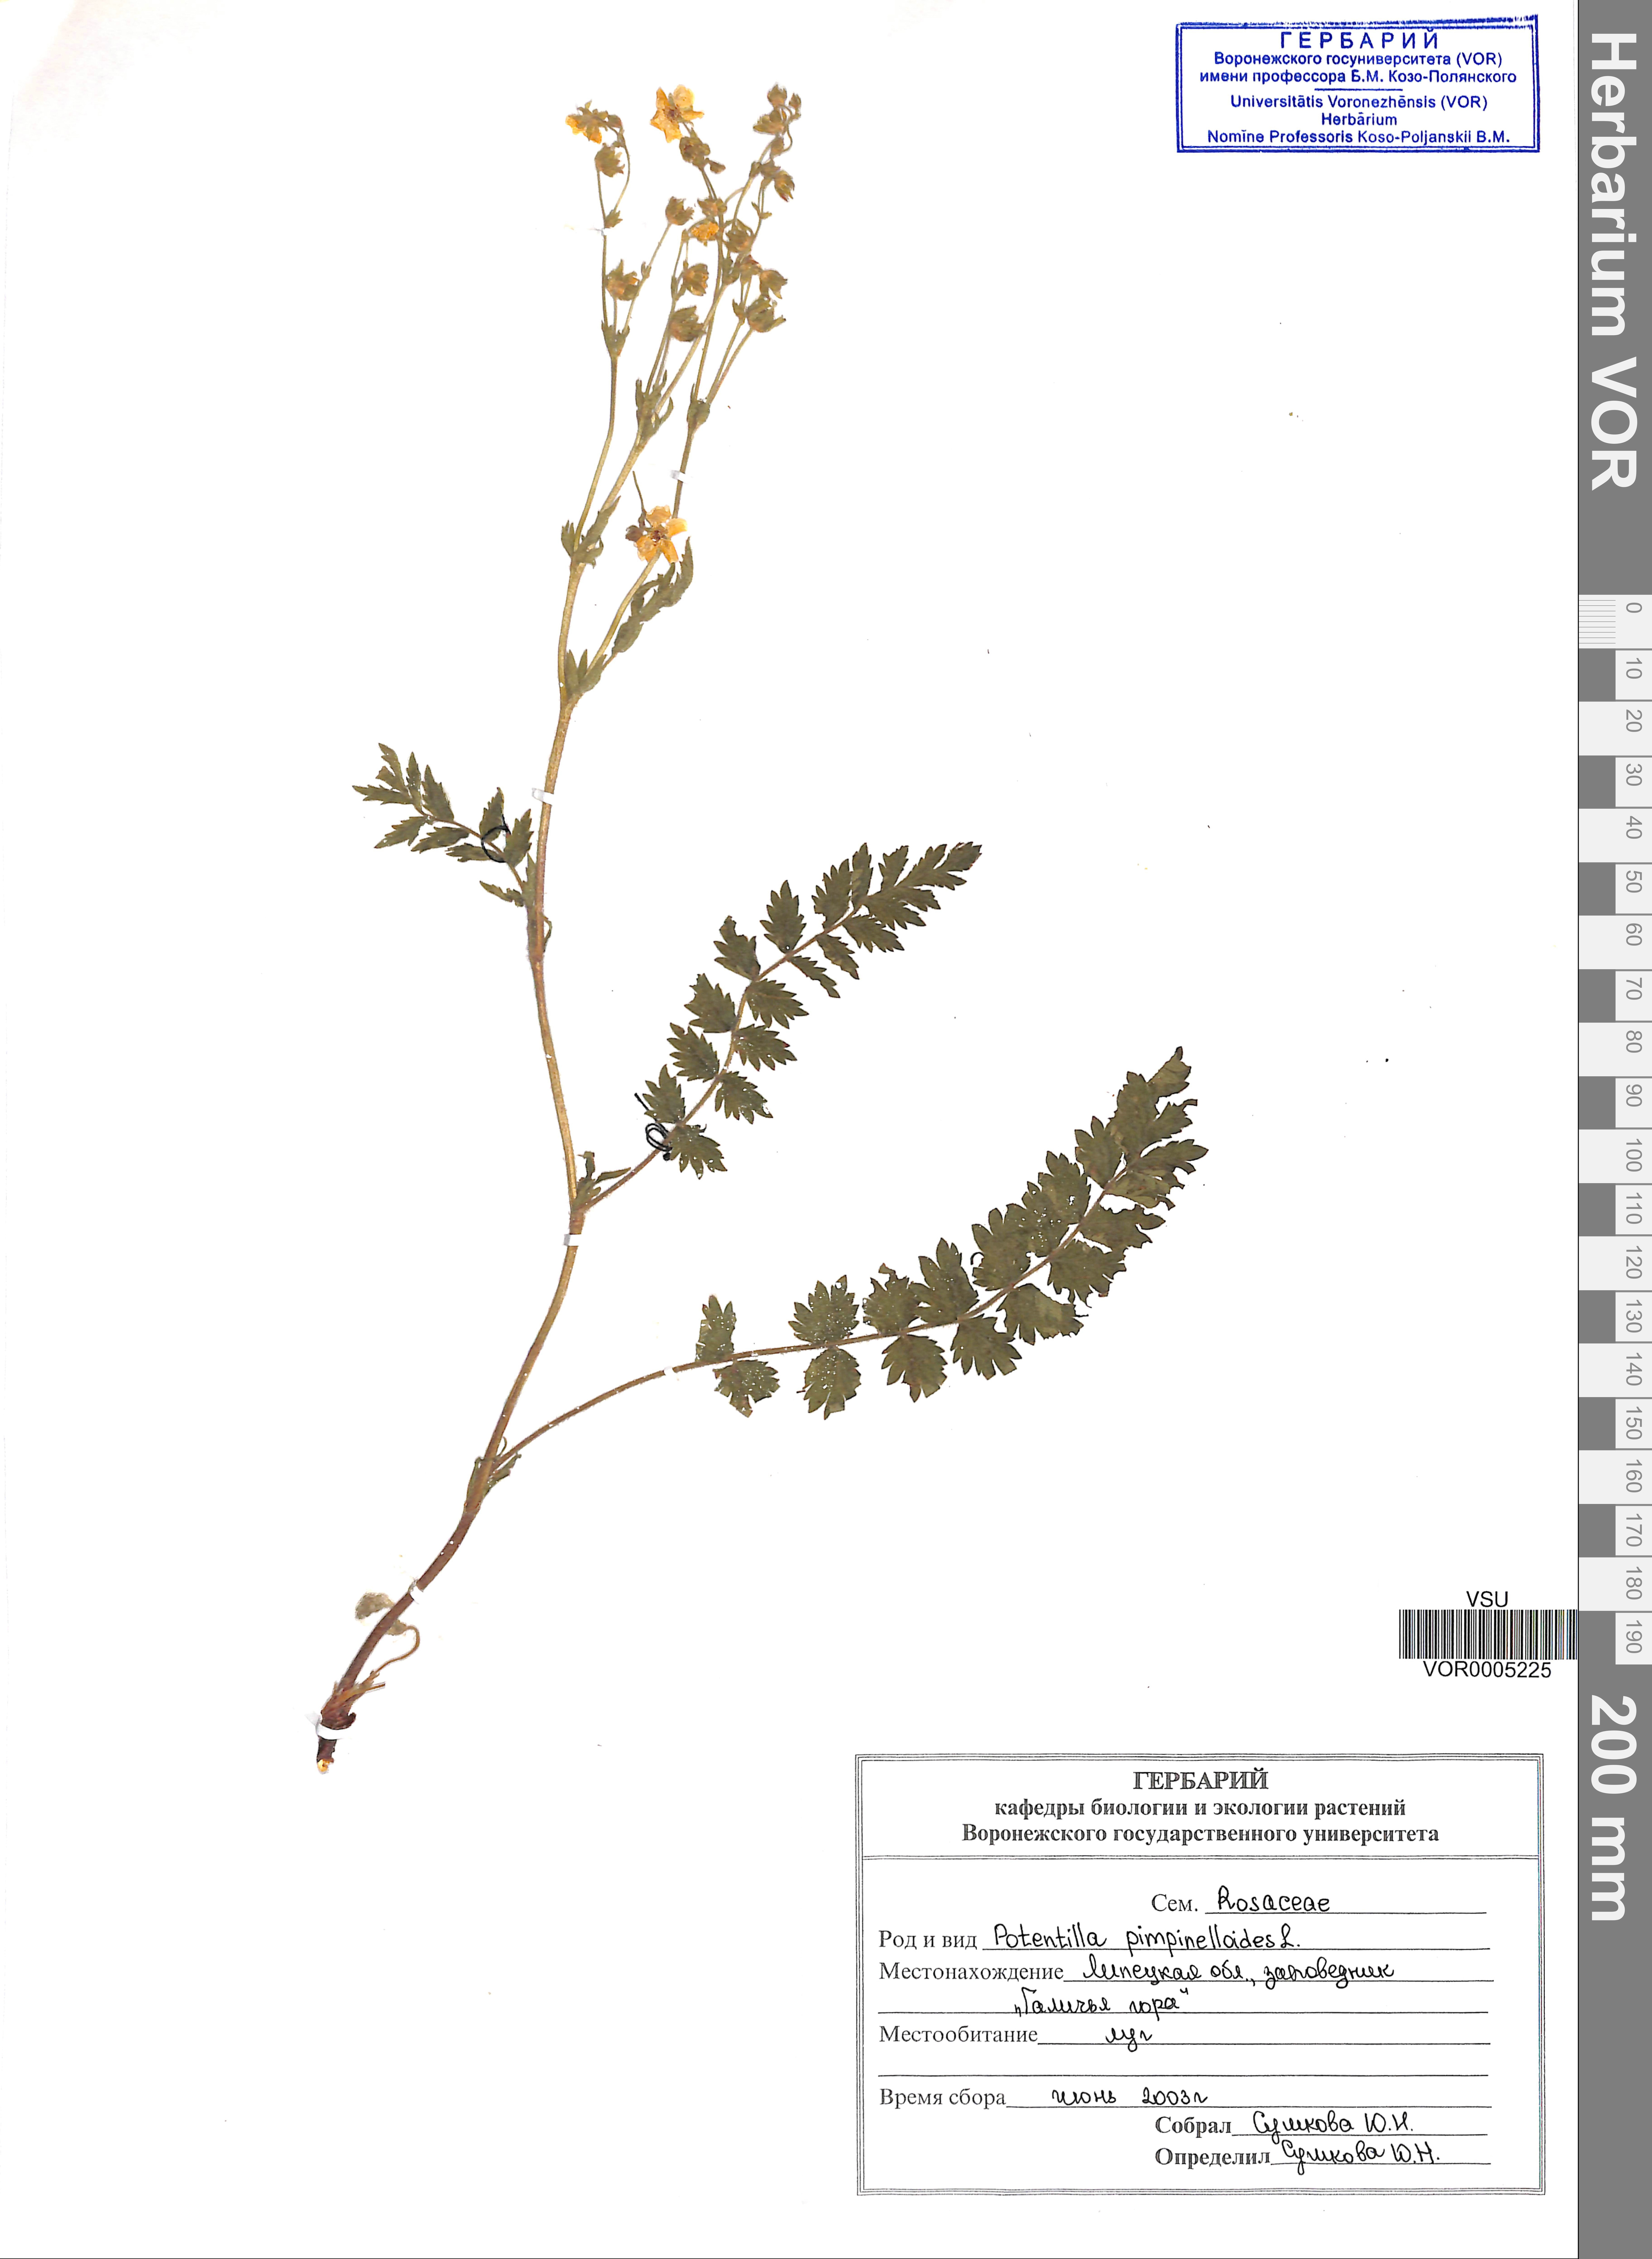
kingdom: Plantae
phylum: Tracheophyta
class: Magnoliopsida
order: Rosales
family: Rosaceae
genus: Potentilla
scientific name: Potentilla pimpinelloides
